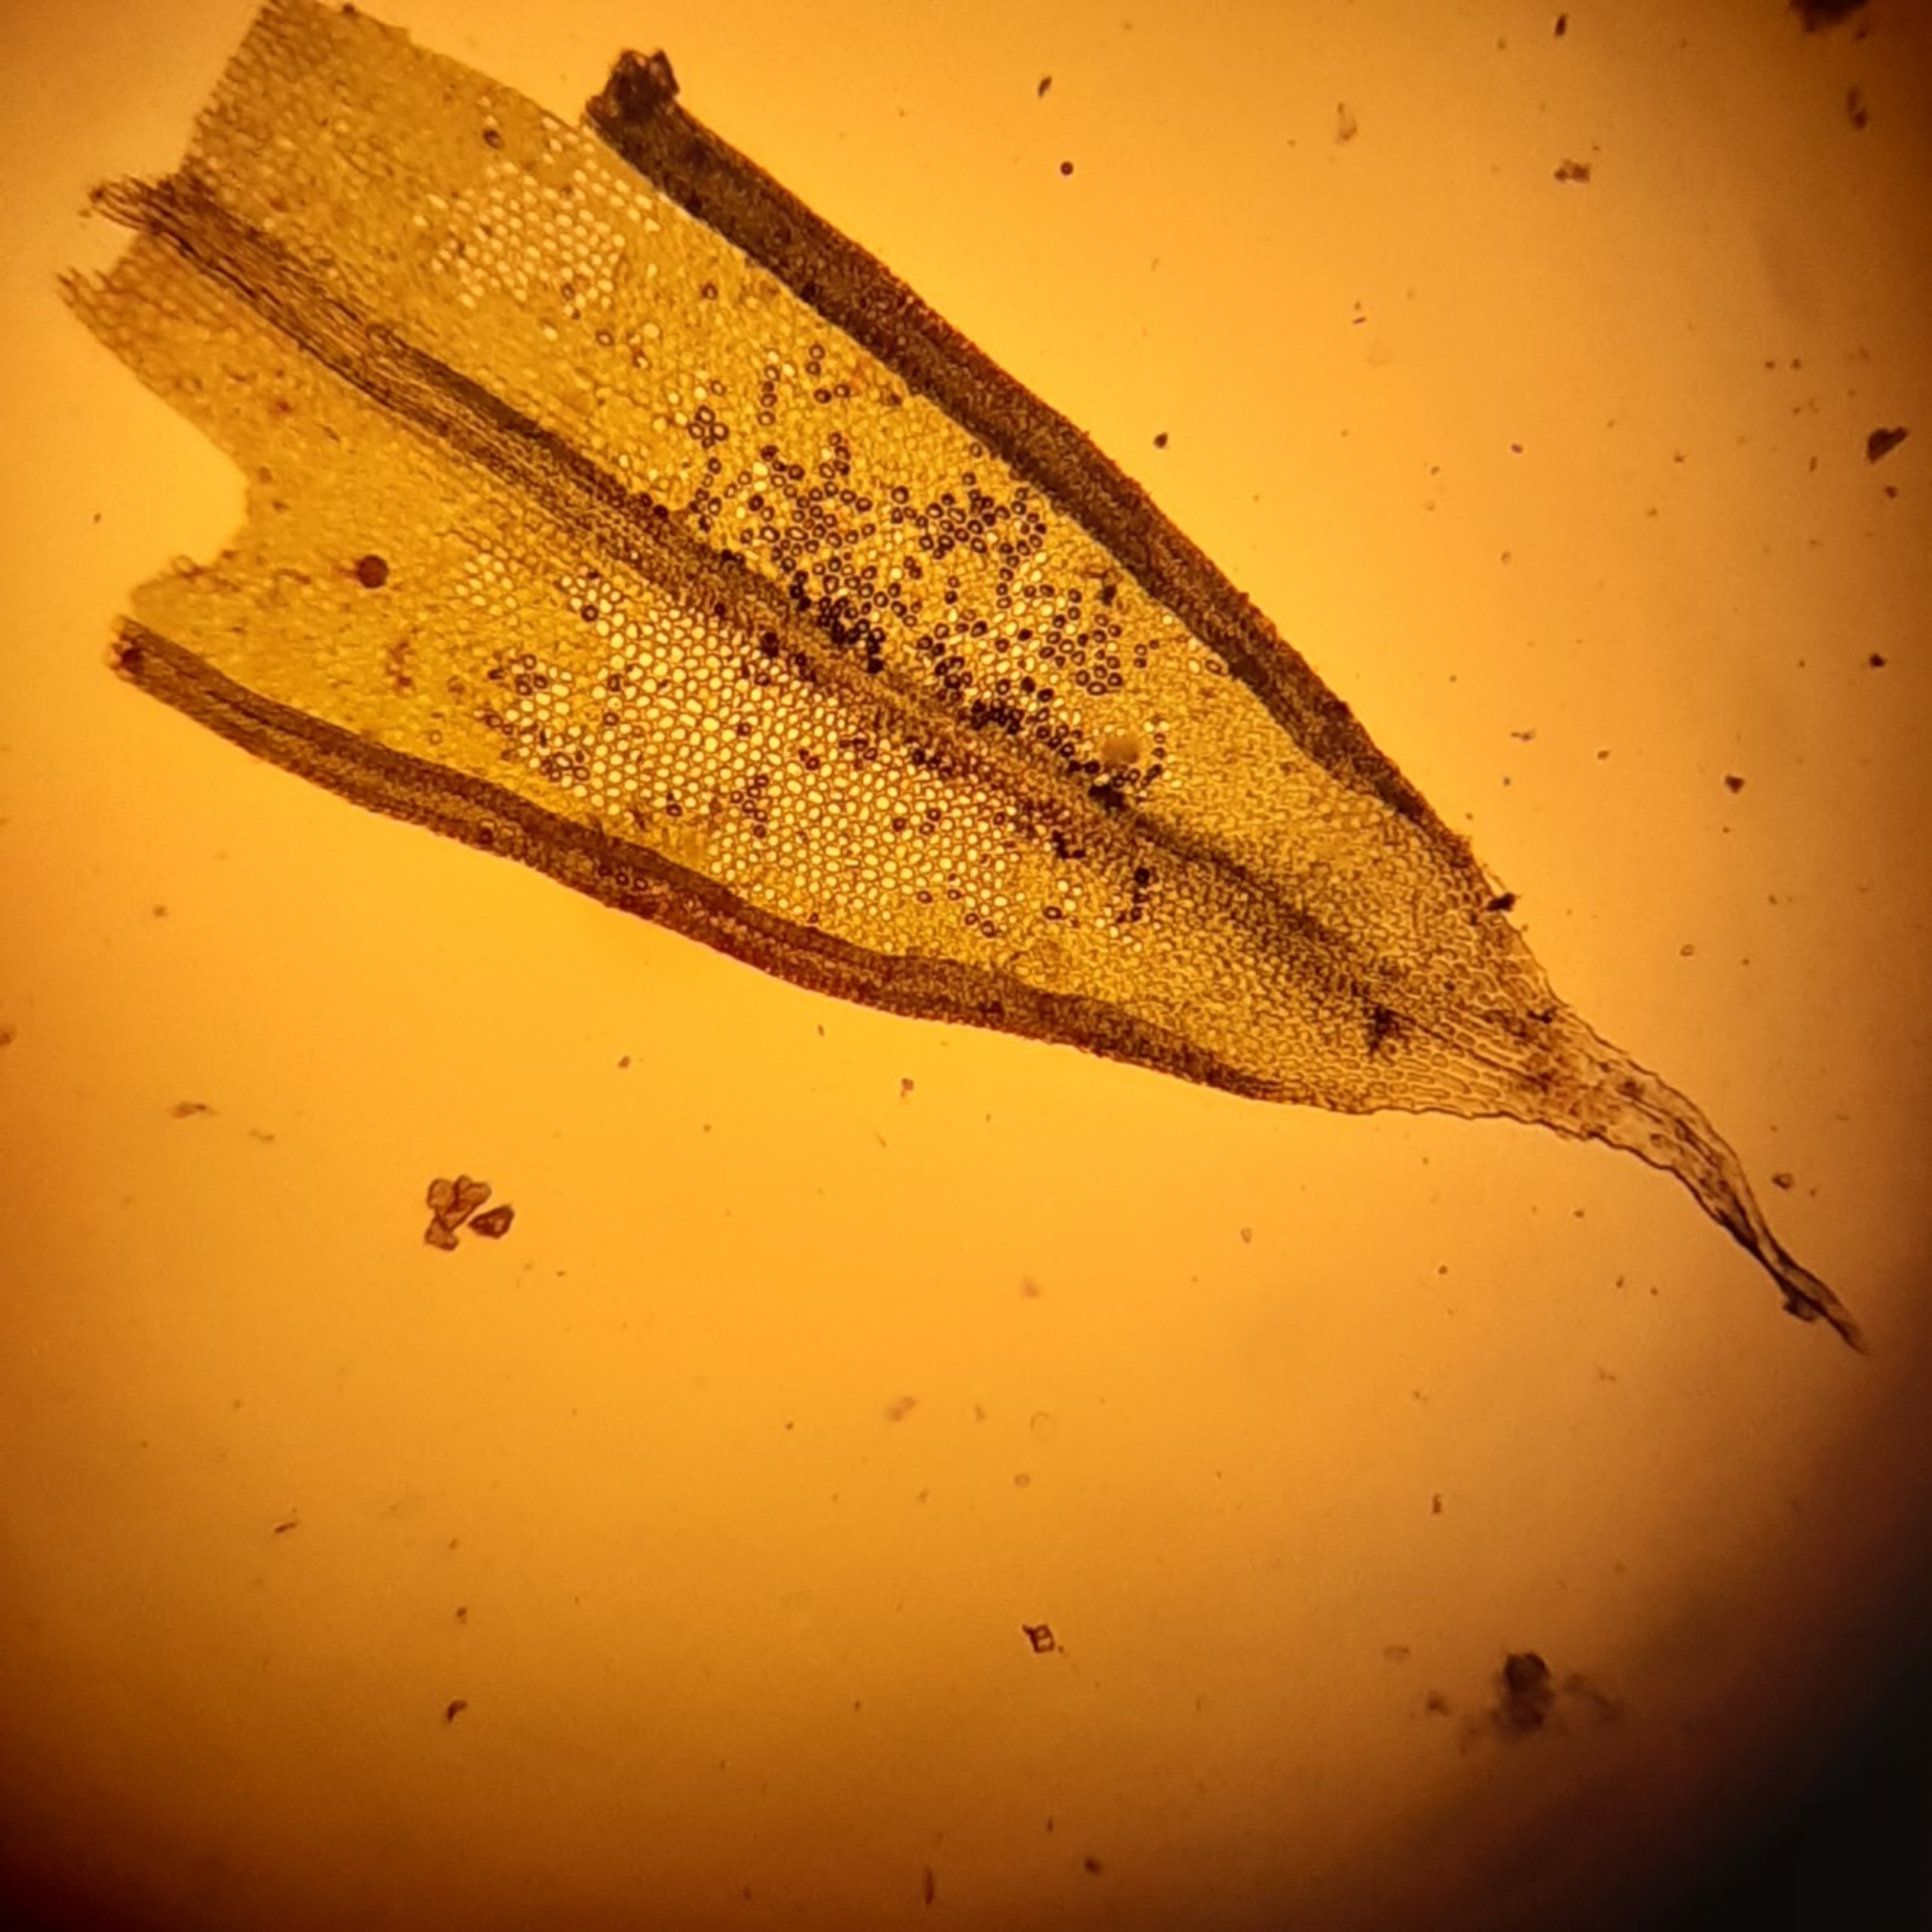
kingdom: Plantae
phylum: Bryophyta
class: Bryopsida
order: Orthotrichales
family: Orthotrichaceae
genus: Orthotrichum
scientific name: Orthotrichum diaphanum
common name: Hårspidset furehætte
